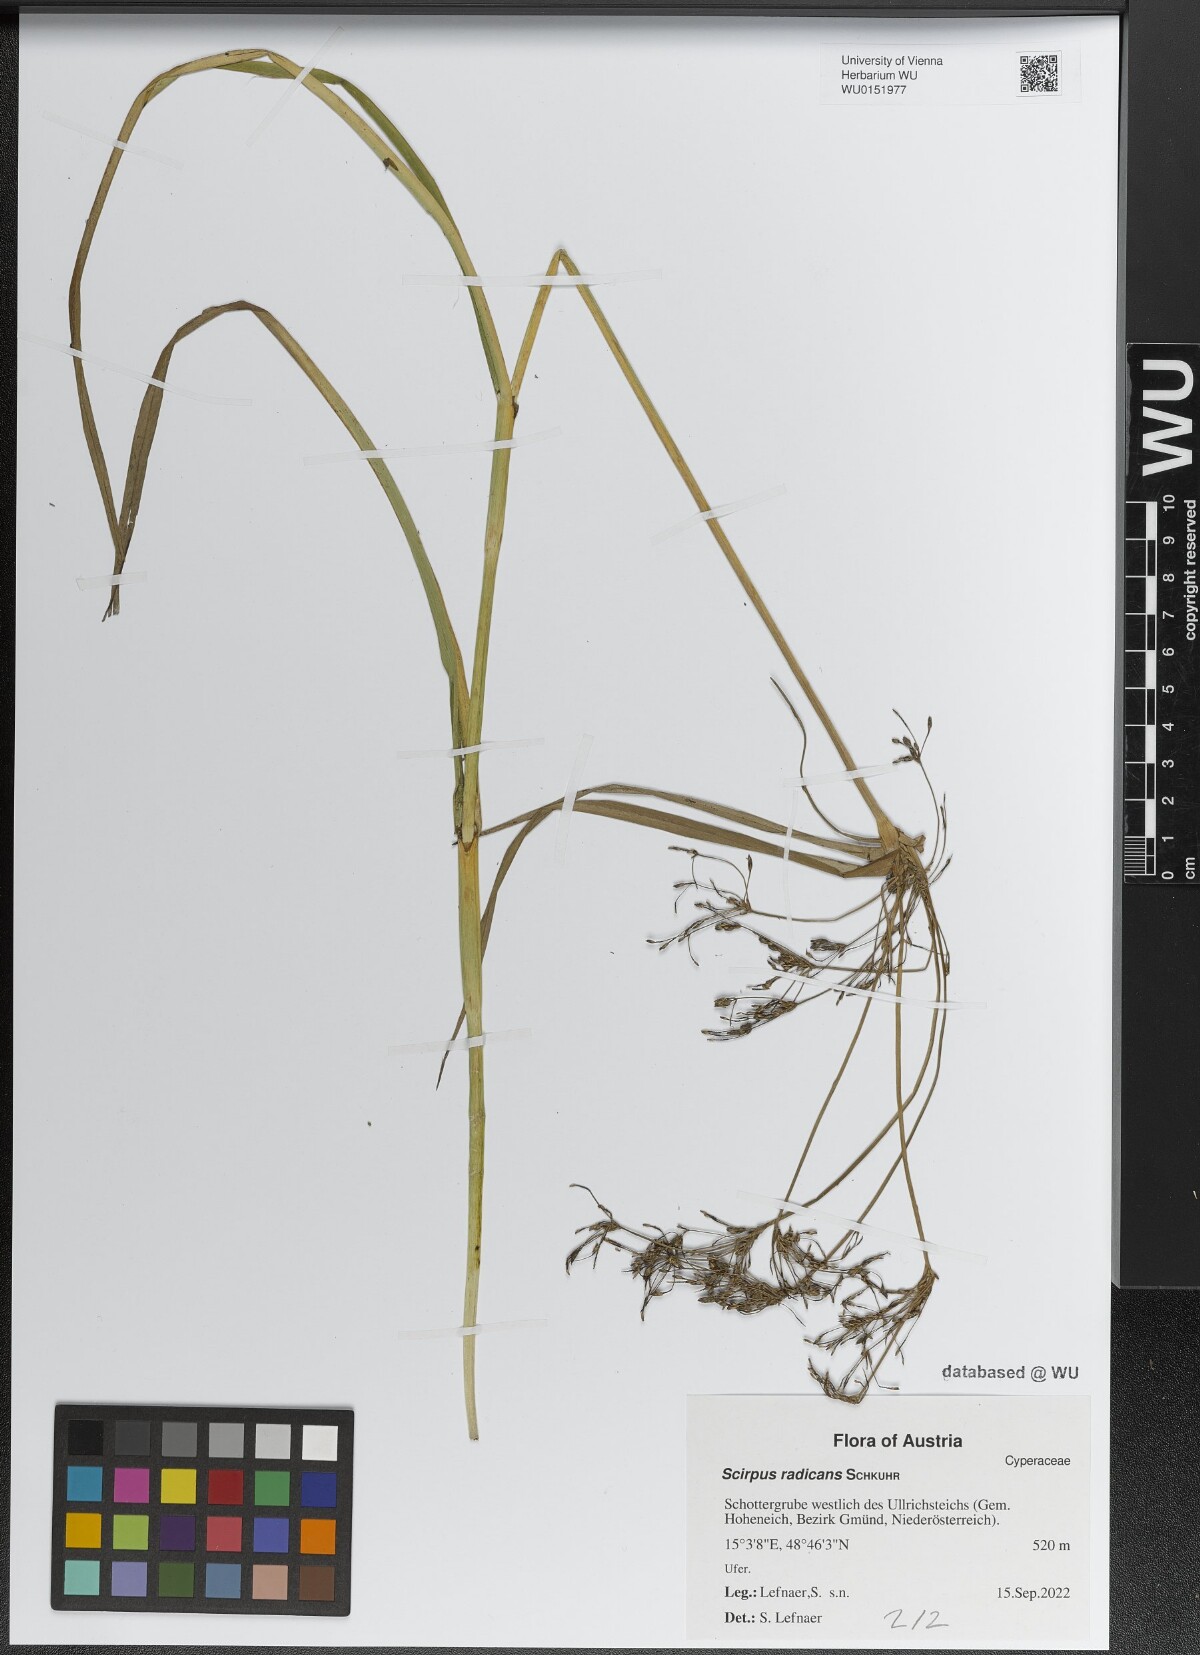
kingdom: Plantae
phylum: Tracheophyta
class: Liliopsida
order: Poales
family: Cyperaceae
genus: Scirpus
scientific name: Scirpus radicans
